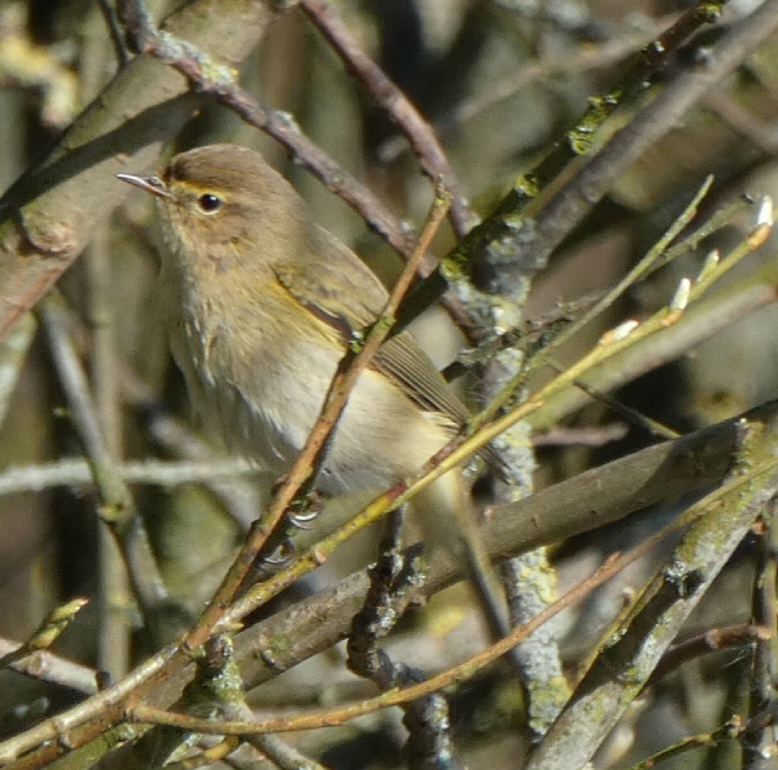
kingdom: Animalia
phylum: Chordata
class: Aves
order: Passeriformes
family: Phylloscopidae
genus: Phylloscopus
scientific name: Phylloscopus collybita
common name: Gransanger
